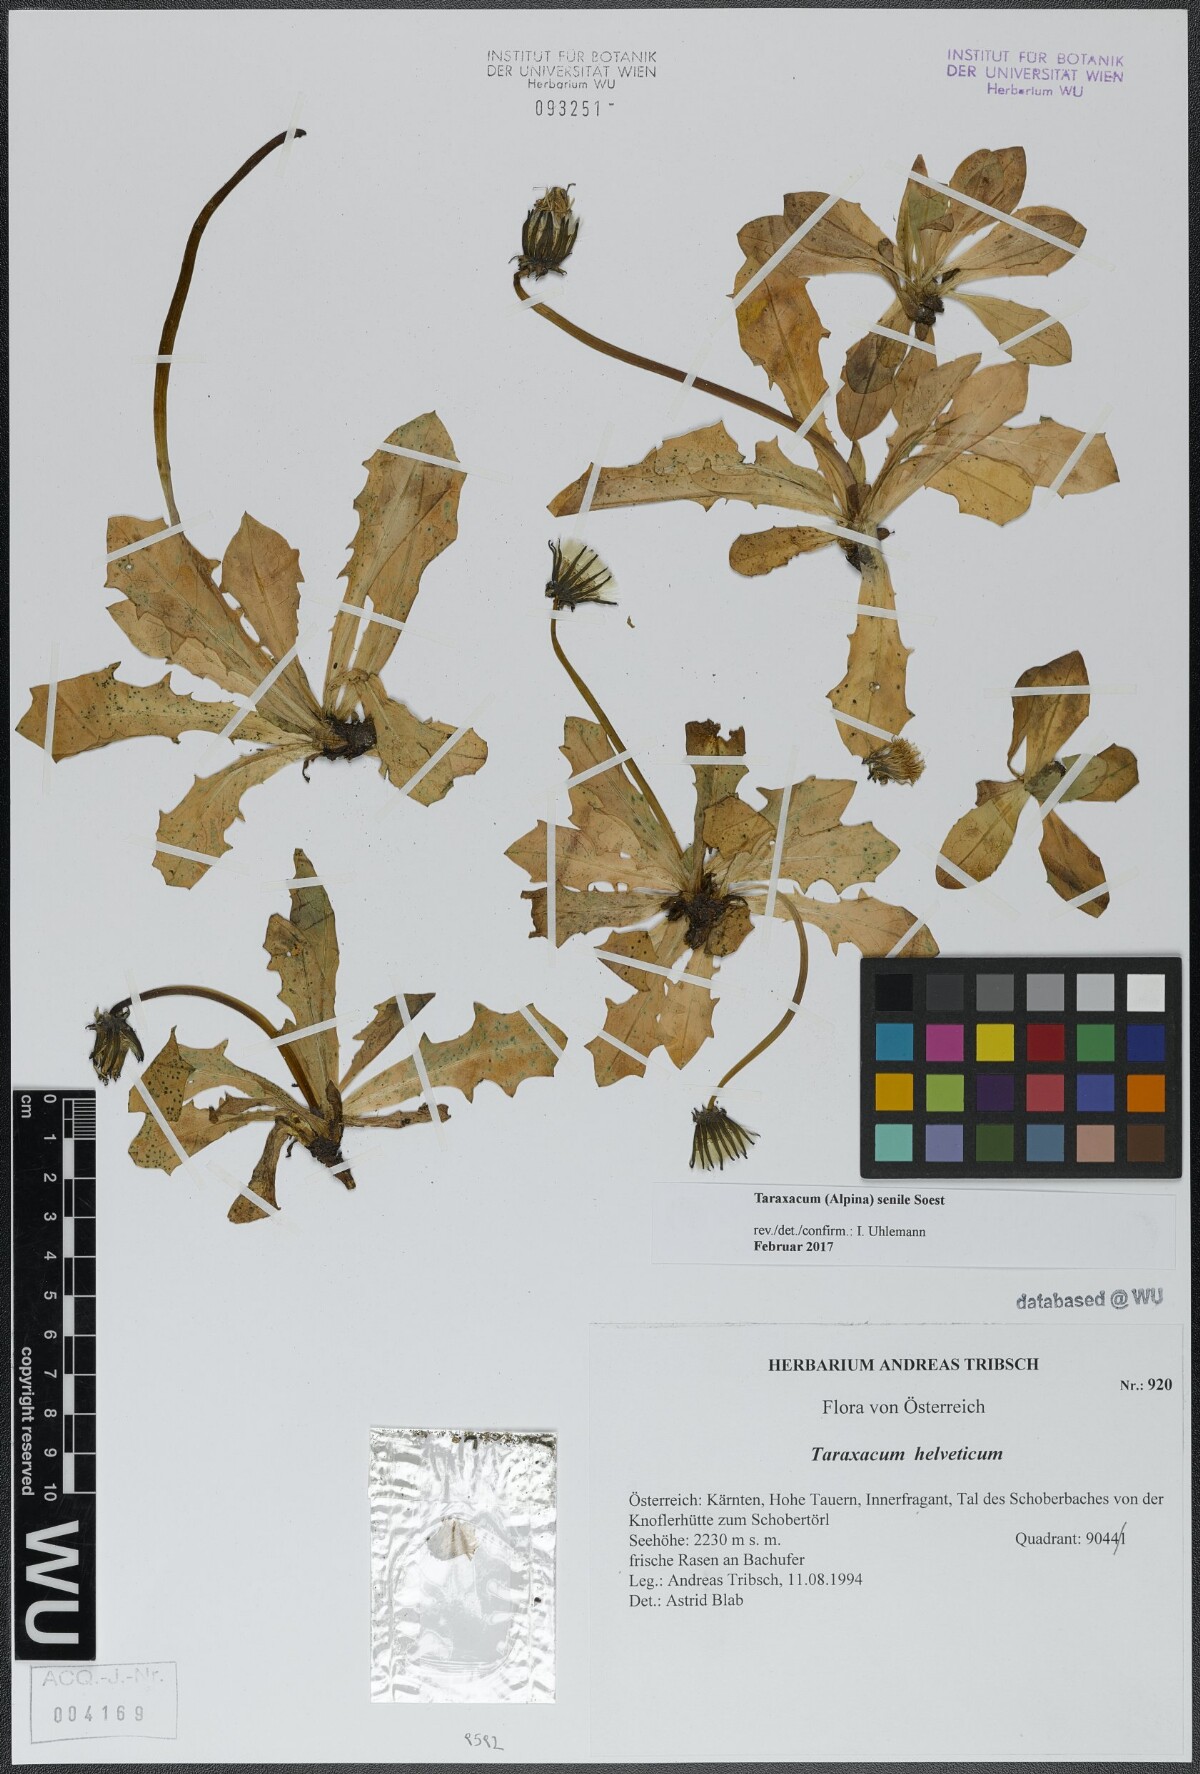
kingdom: Plantae
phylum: Tracheophyta
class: Magnoliopsida
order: Asterales
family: Asteraceae
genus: Taraxacum
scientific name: Taraxacum senile
